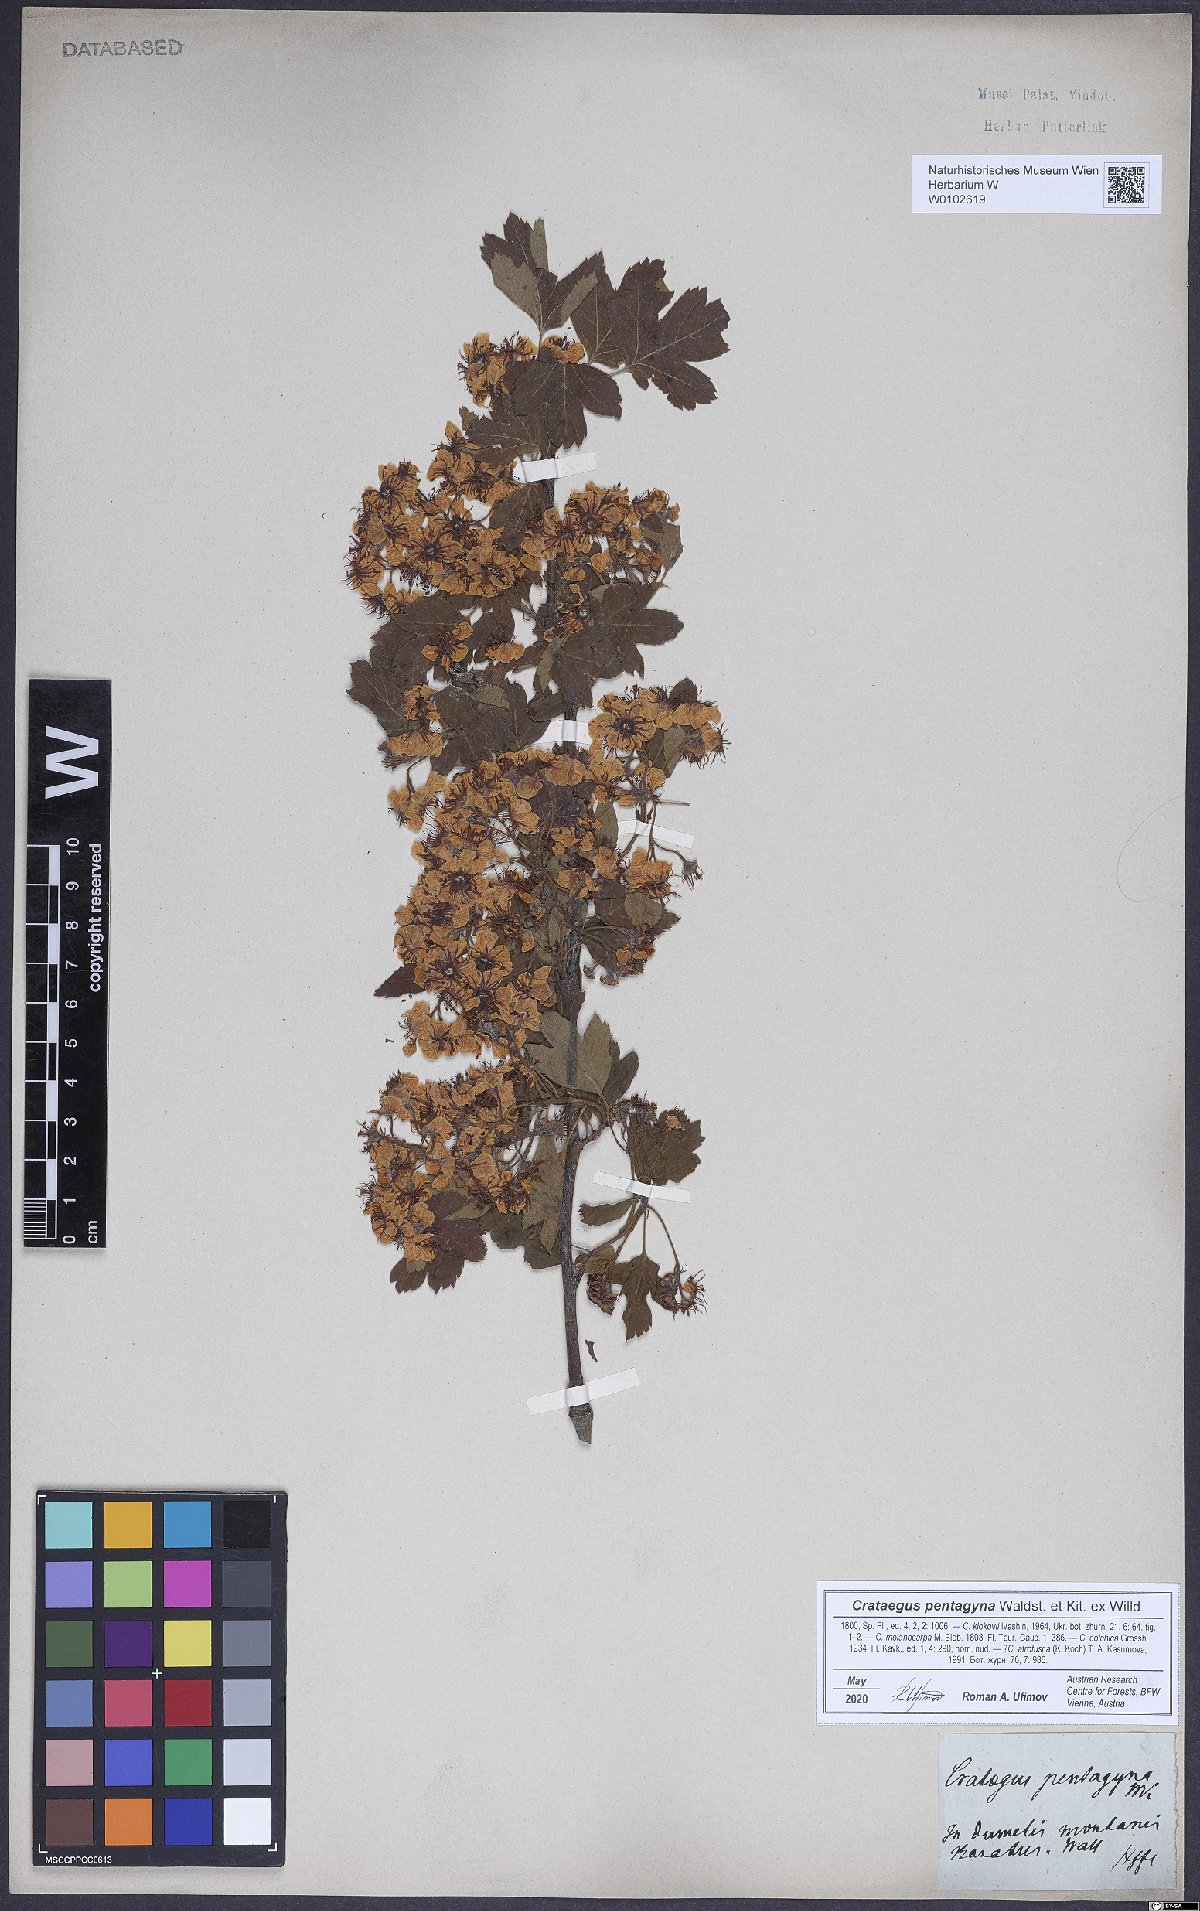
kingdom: Plantae
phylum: Tracheophyta
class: Magnoliopsida
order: Rosales
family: Rosaceae
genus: Crataegus
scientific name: Crataegus pentagyna
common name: Small-flowered black hawthorn
